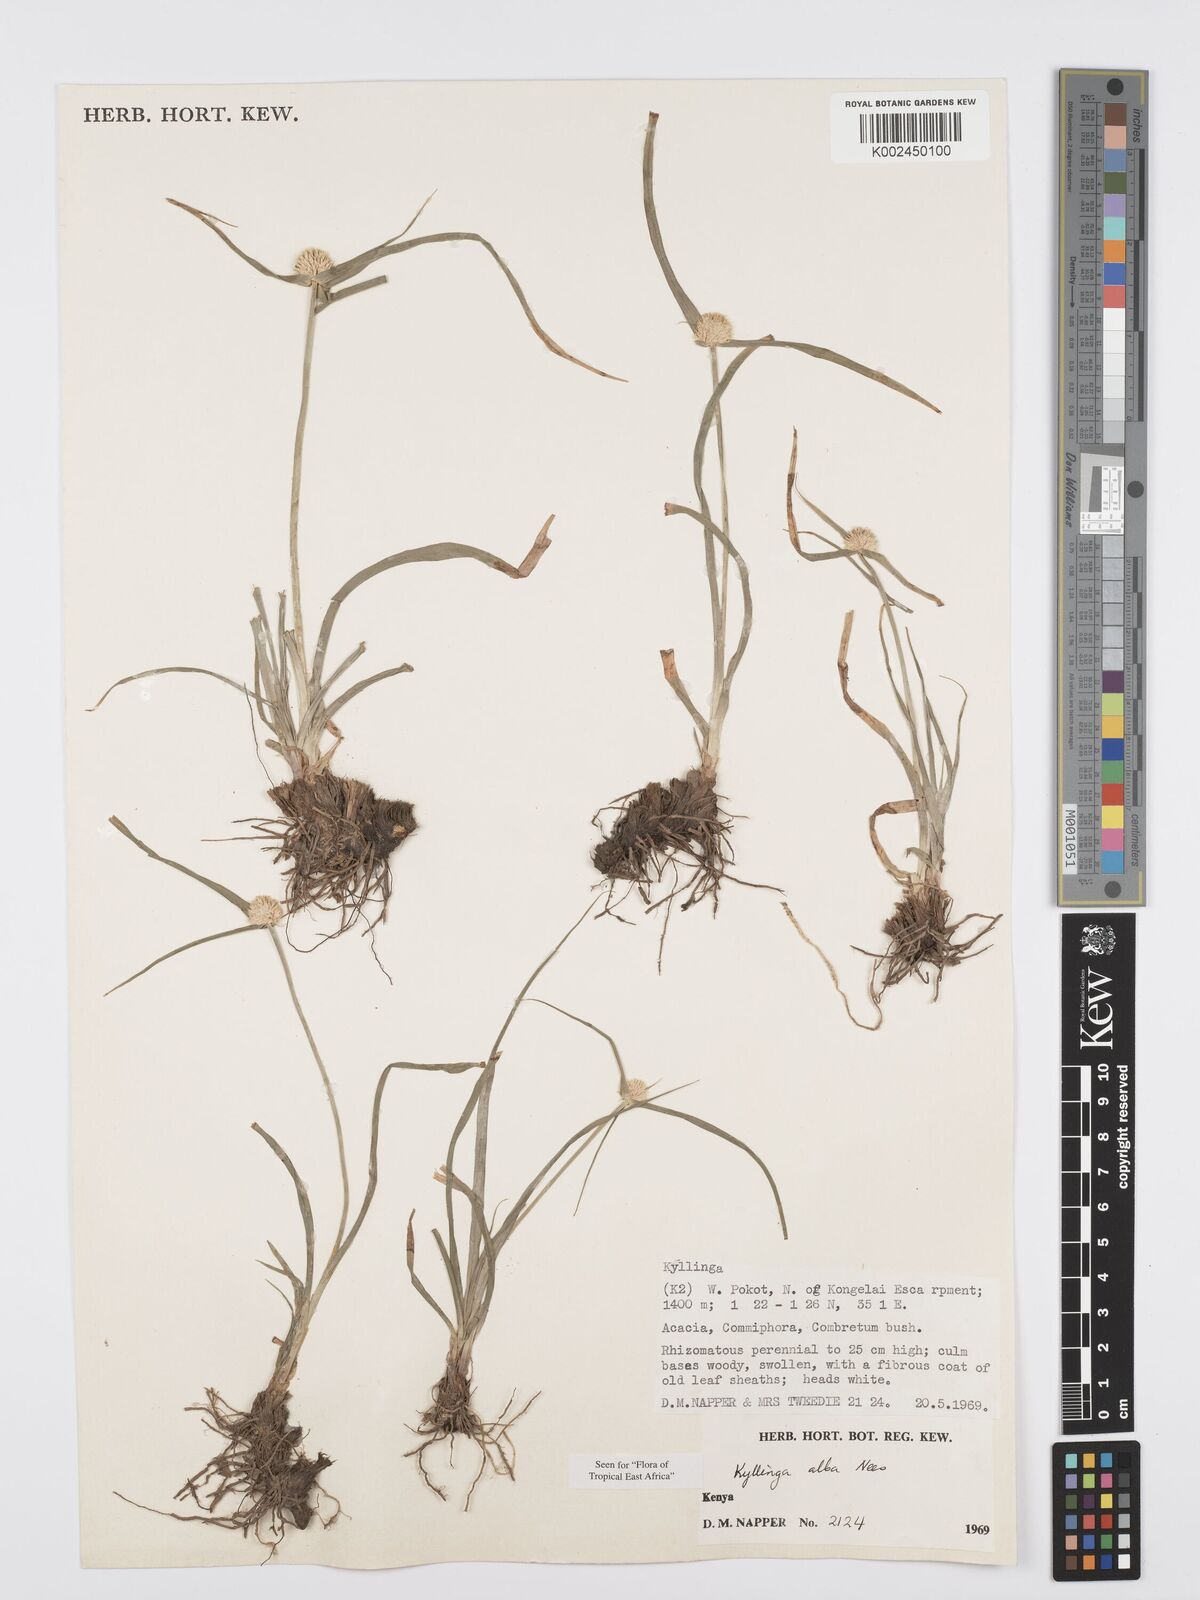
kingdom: Plantae
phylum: Tracheophyta
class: Liliopsida
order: Poales
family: Cyperaceae
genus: Cyperus
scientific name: Cyperus
